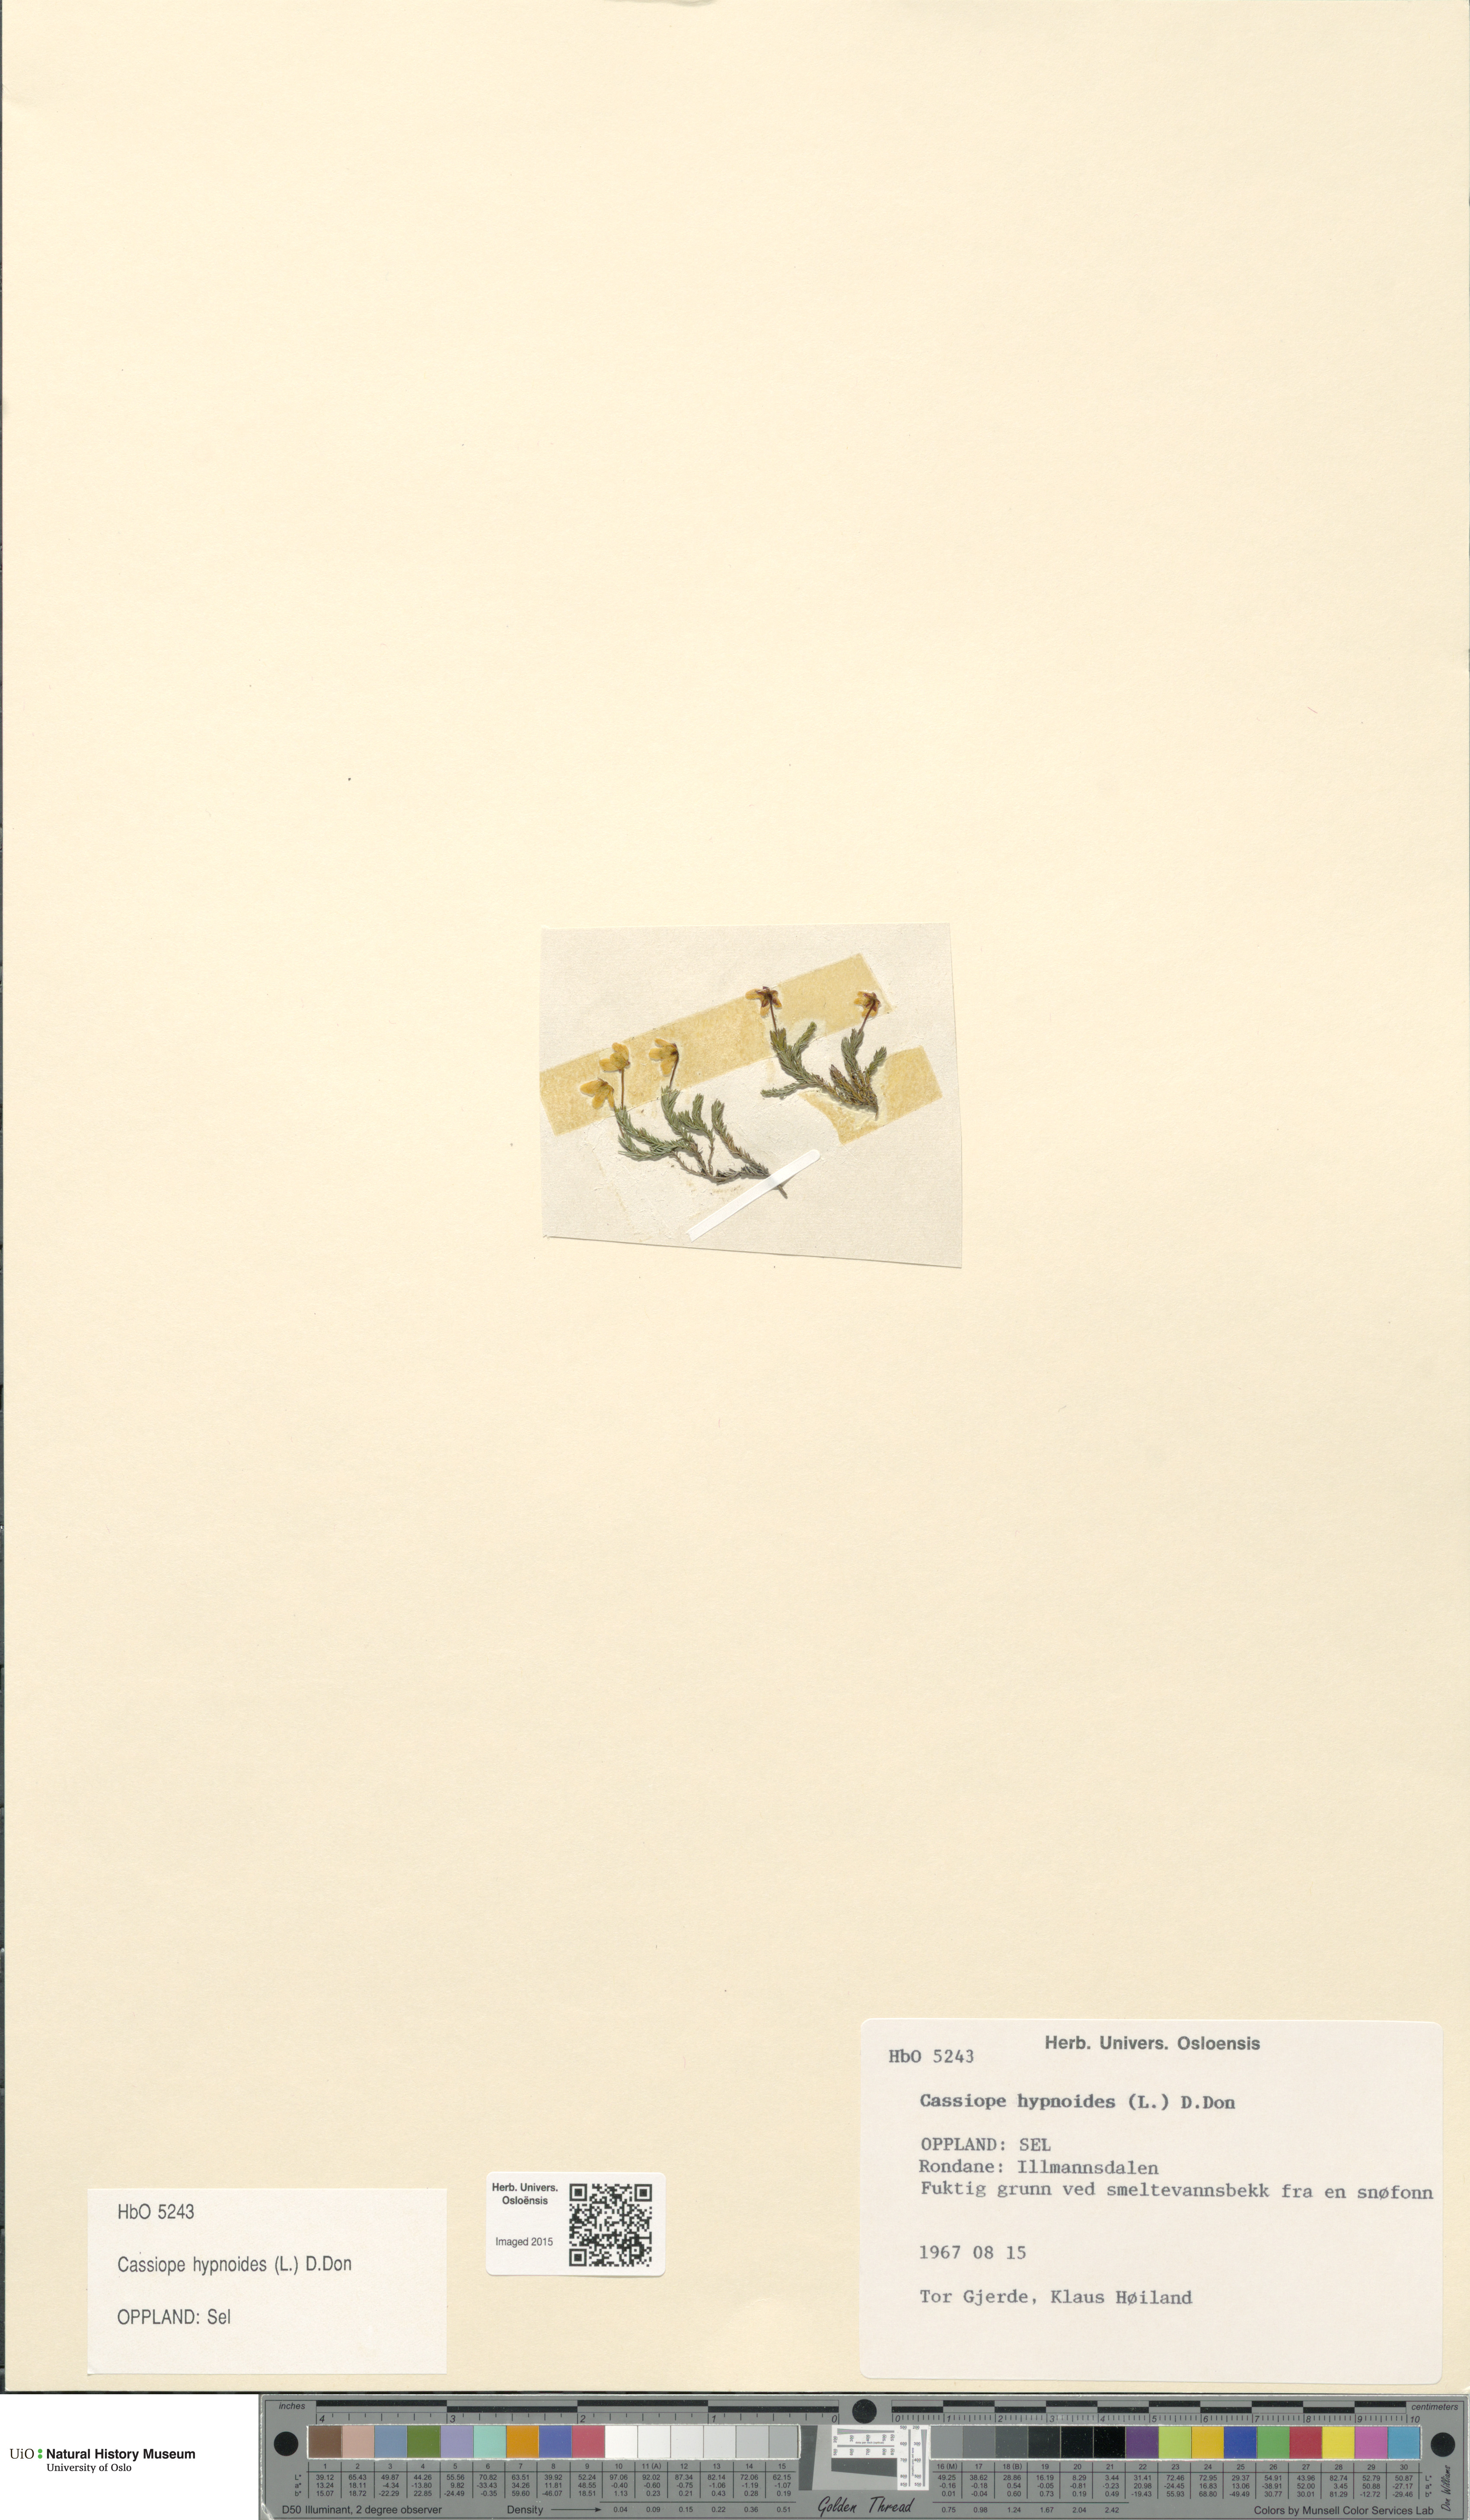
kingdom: Plantae
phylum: Tracheophyta
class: Magnoliopsida
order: Ericales
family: Ericaceae
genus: Harrimanella
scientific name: Harrimanella hypnoides
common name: Moss bell heather
